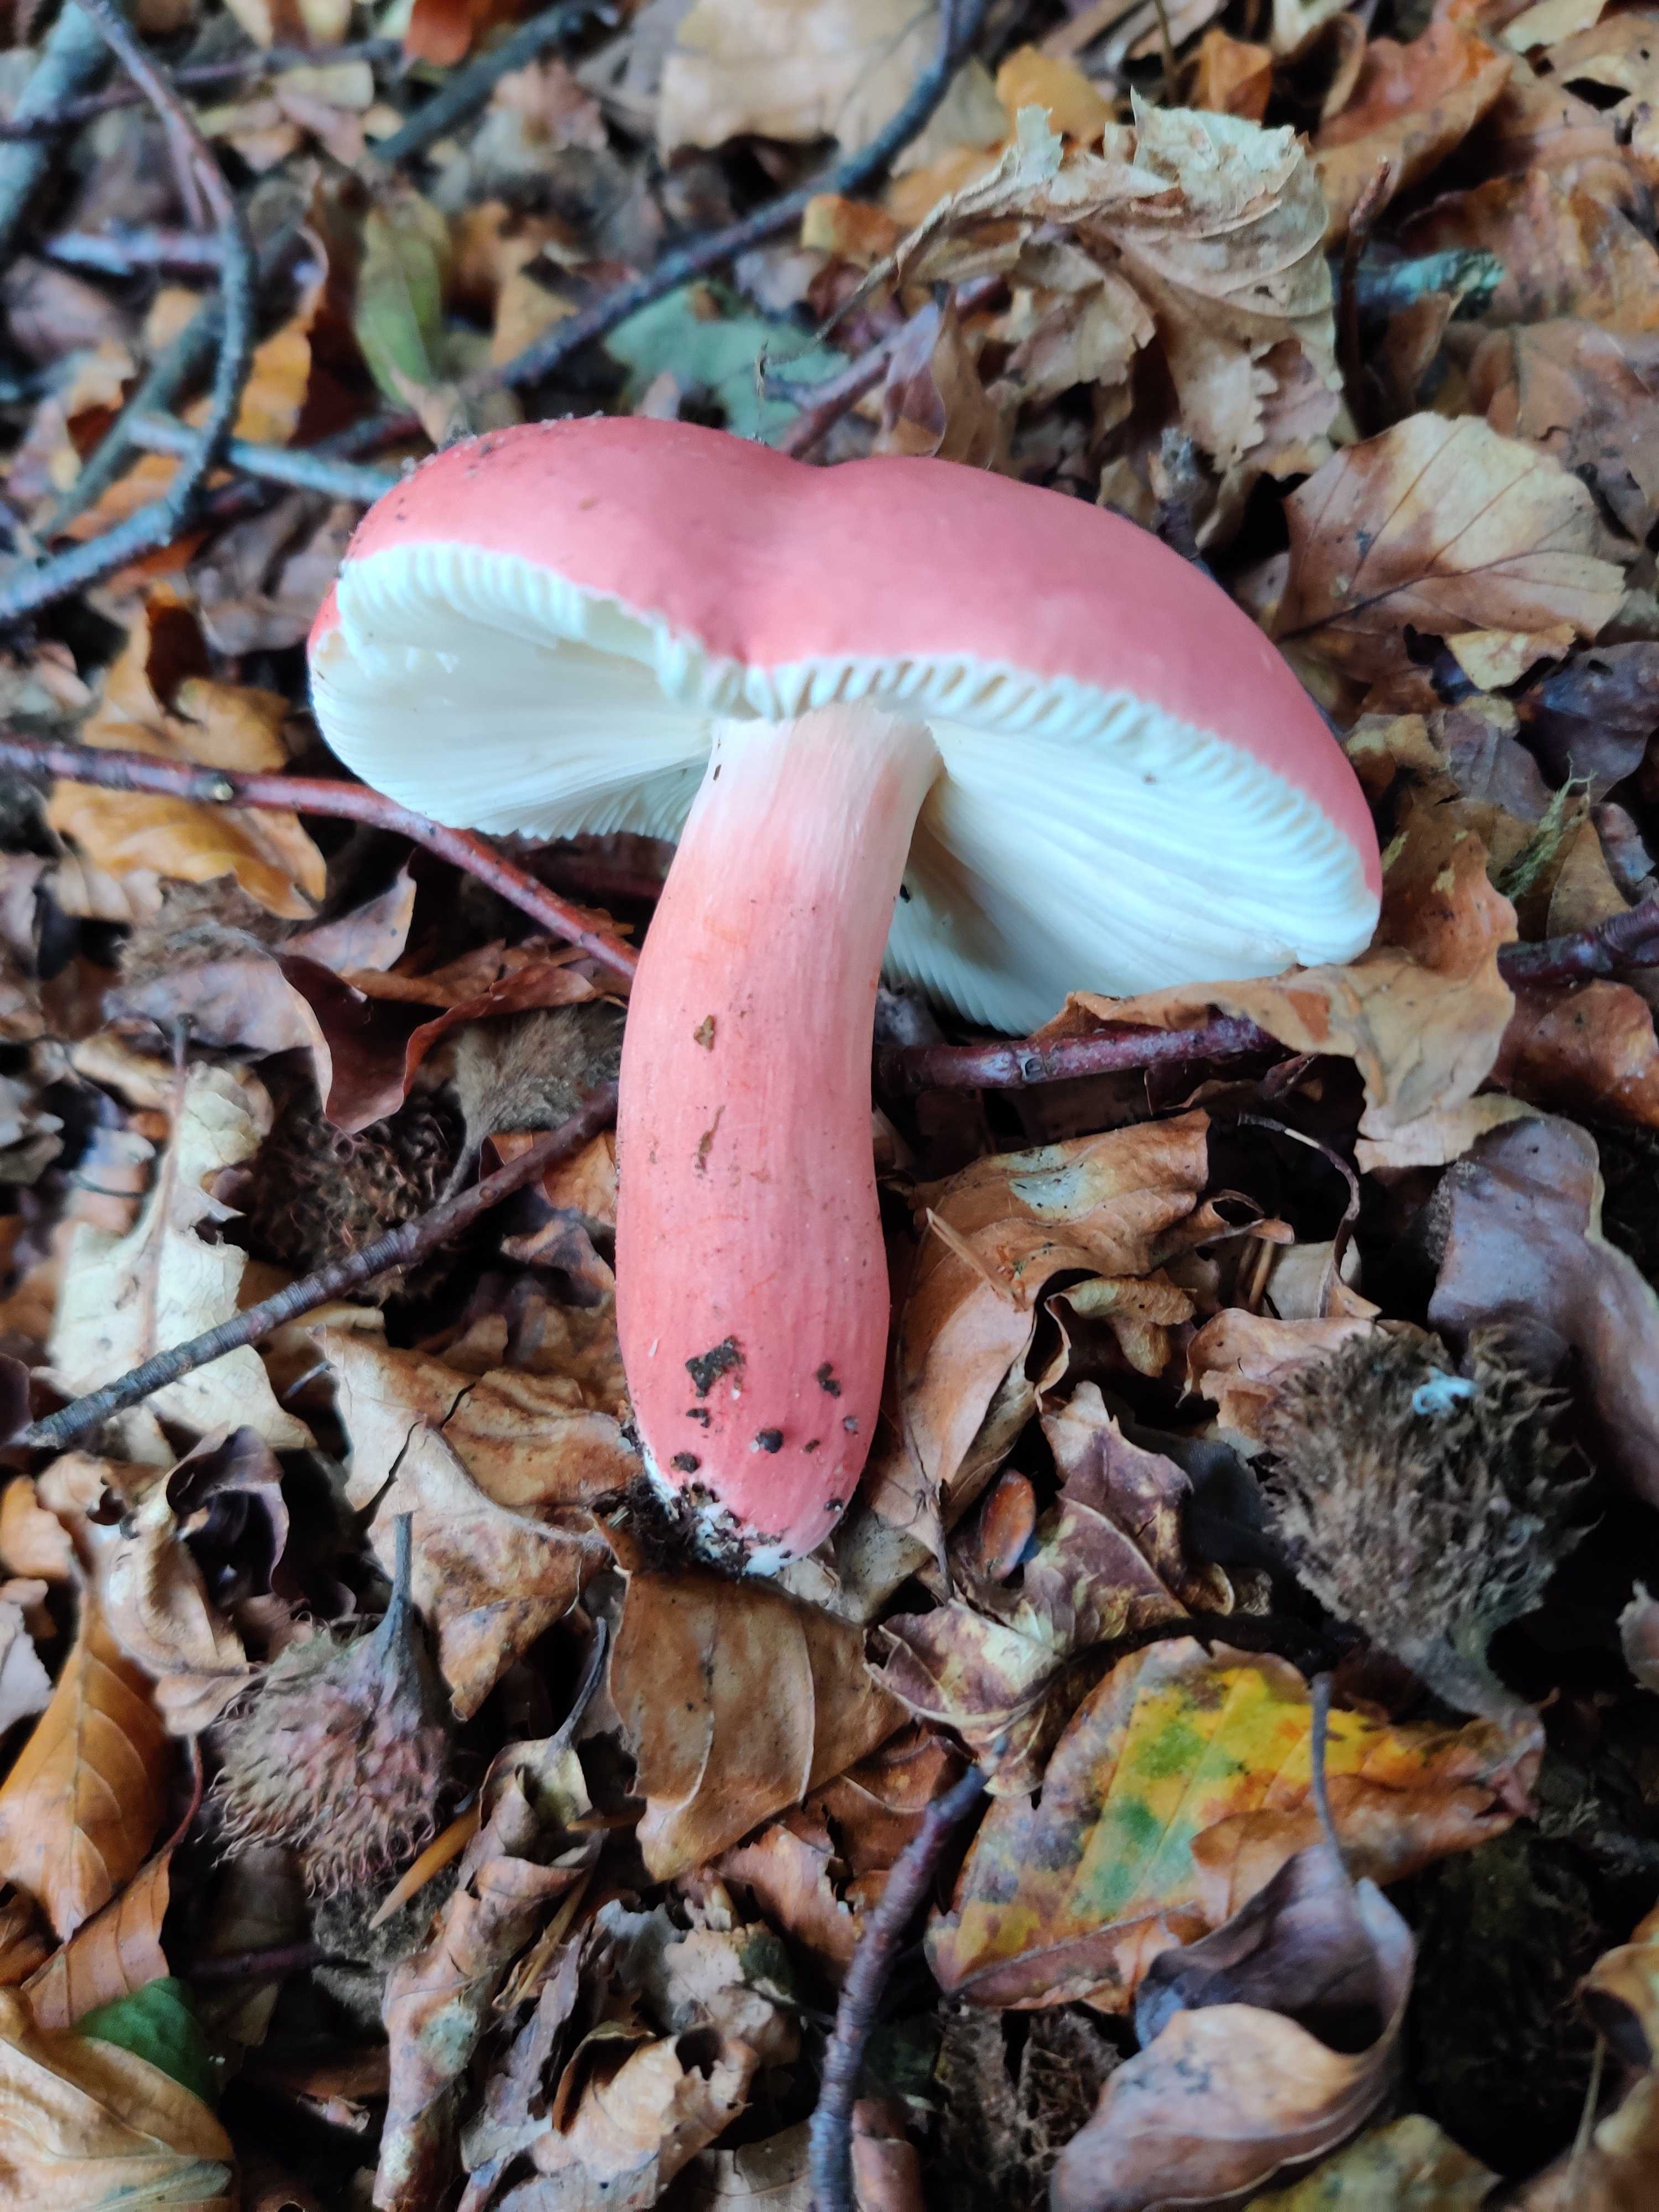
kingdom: Fungi
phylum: Basidiomycota
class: Agaricomycetes
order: Russulales
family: Russulaceae
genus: Russula
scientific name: Russula rosea
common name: fastkødet skørhat
